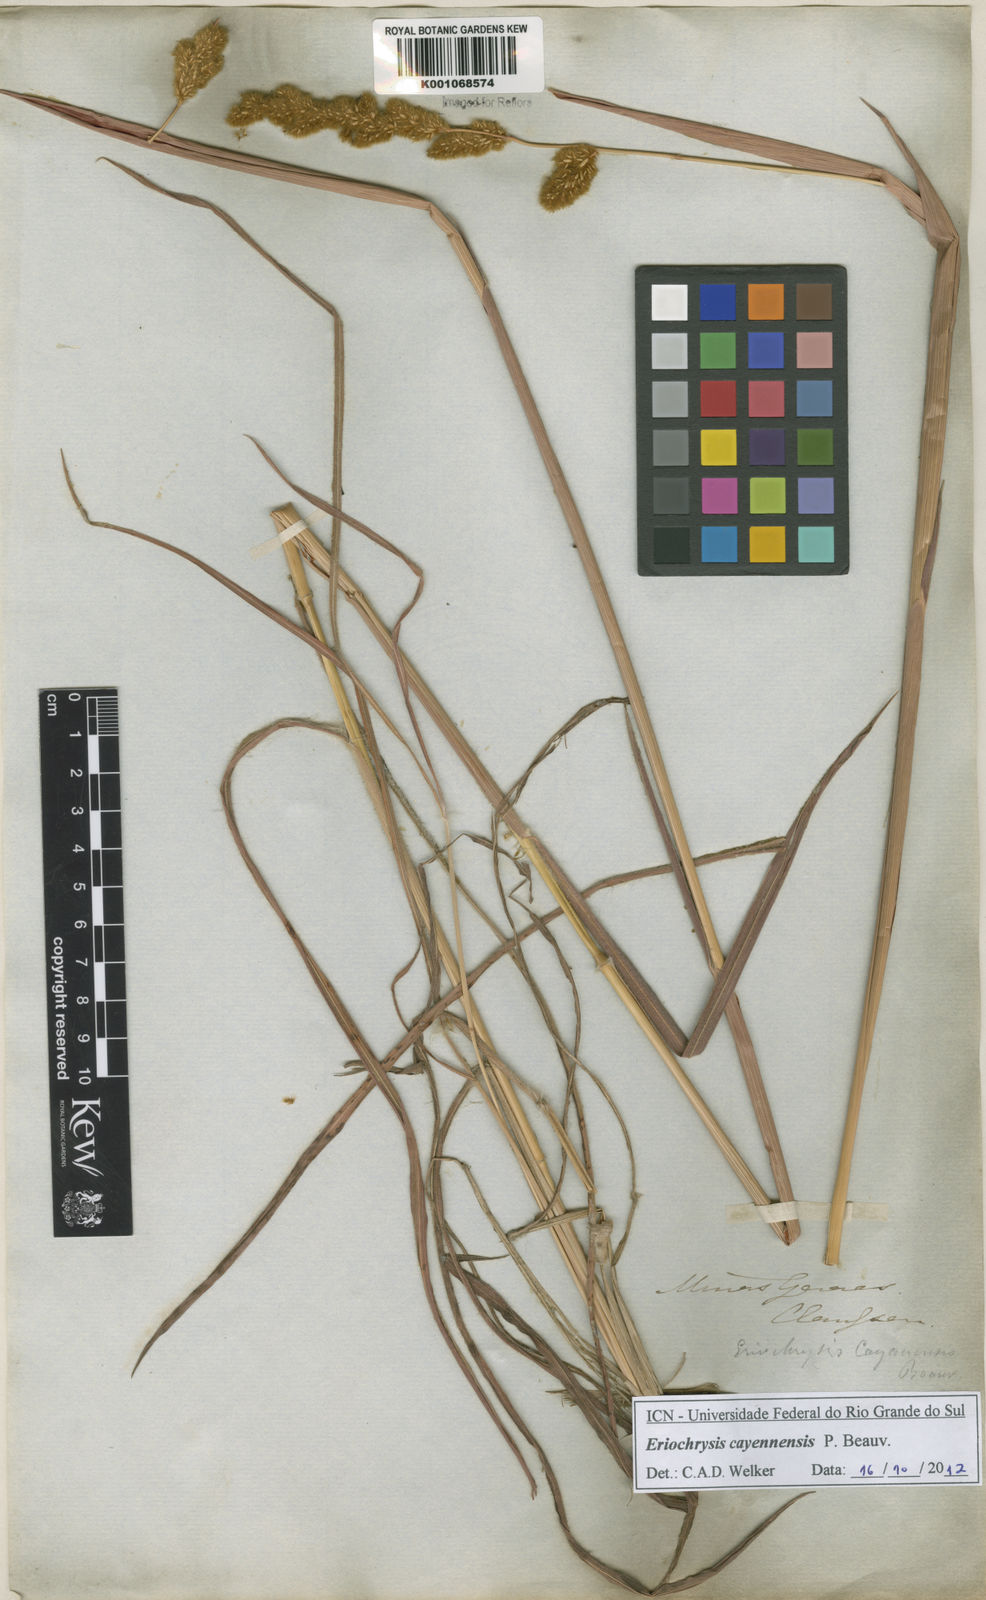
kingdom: Plantae
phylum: Tracheophyta
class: Liliopsida
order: Poales
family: Poaceae
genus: Eriochrysis
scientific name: Eriochrysis cayennensis
